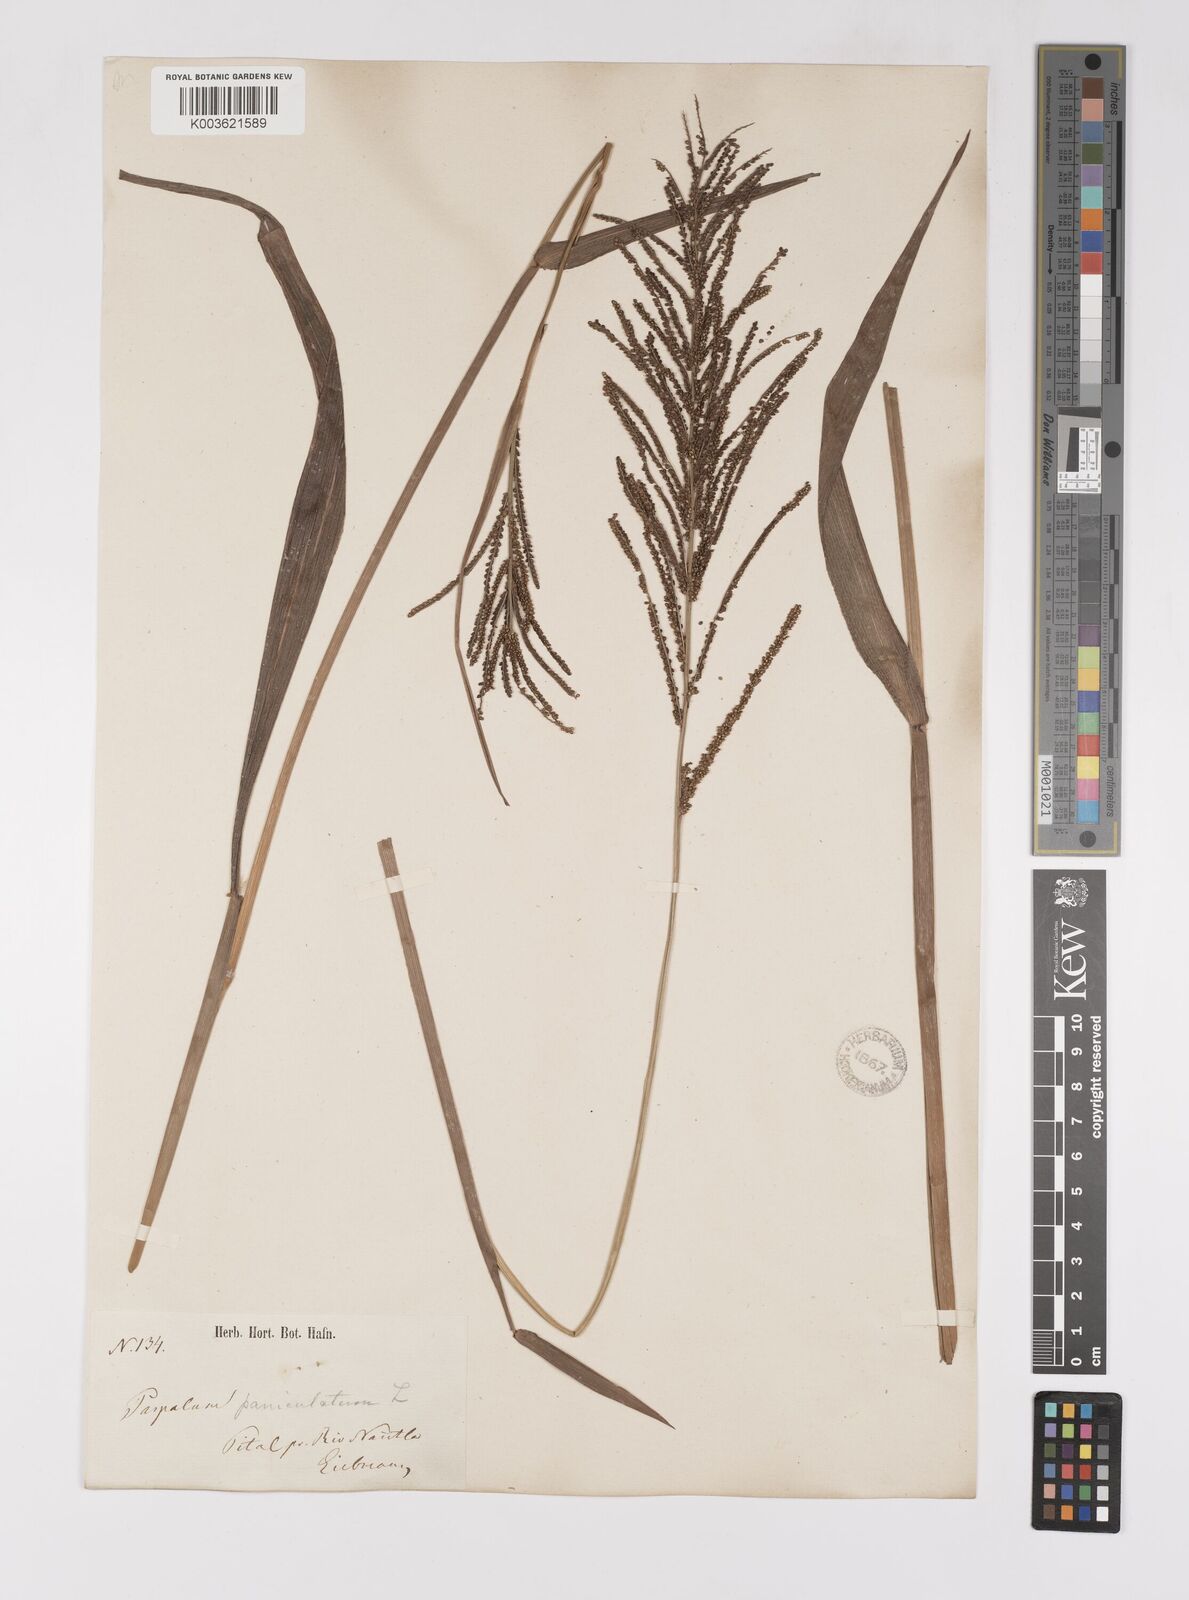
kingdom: Plantae
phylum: Tracheophyta
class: Liliopsida
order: Poales
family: Poaceae
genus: Paspalum
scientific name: Paspalum paniculatum
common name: Arrocillo
